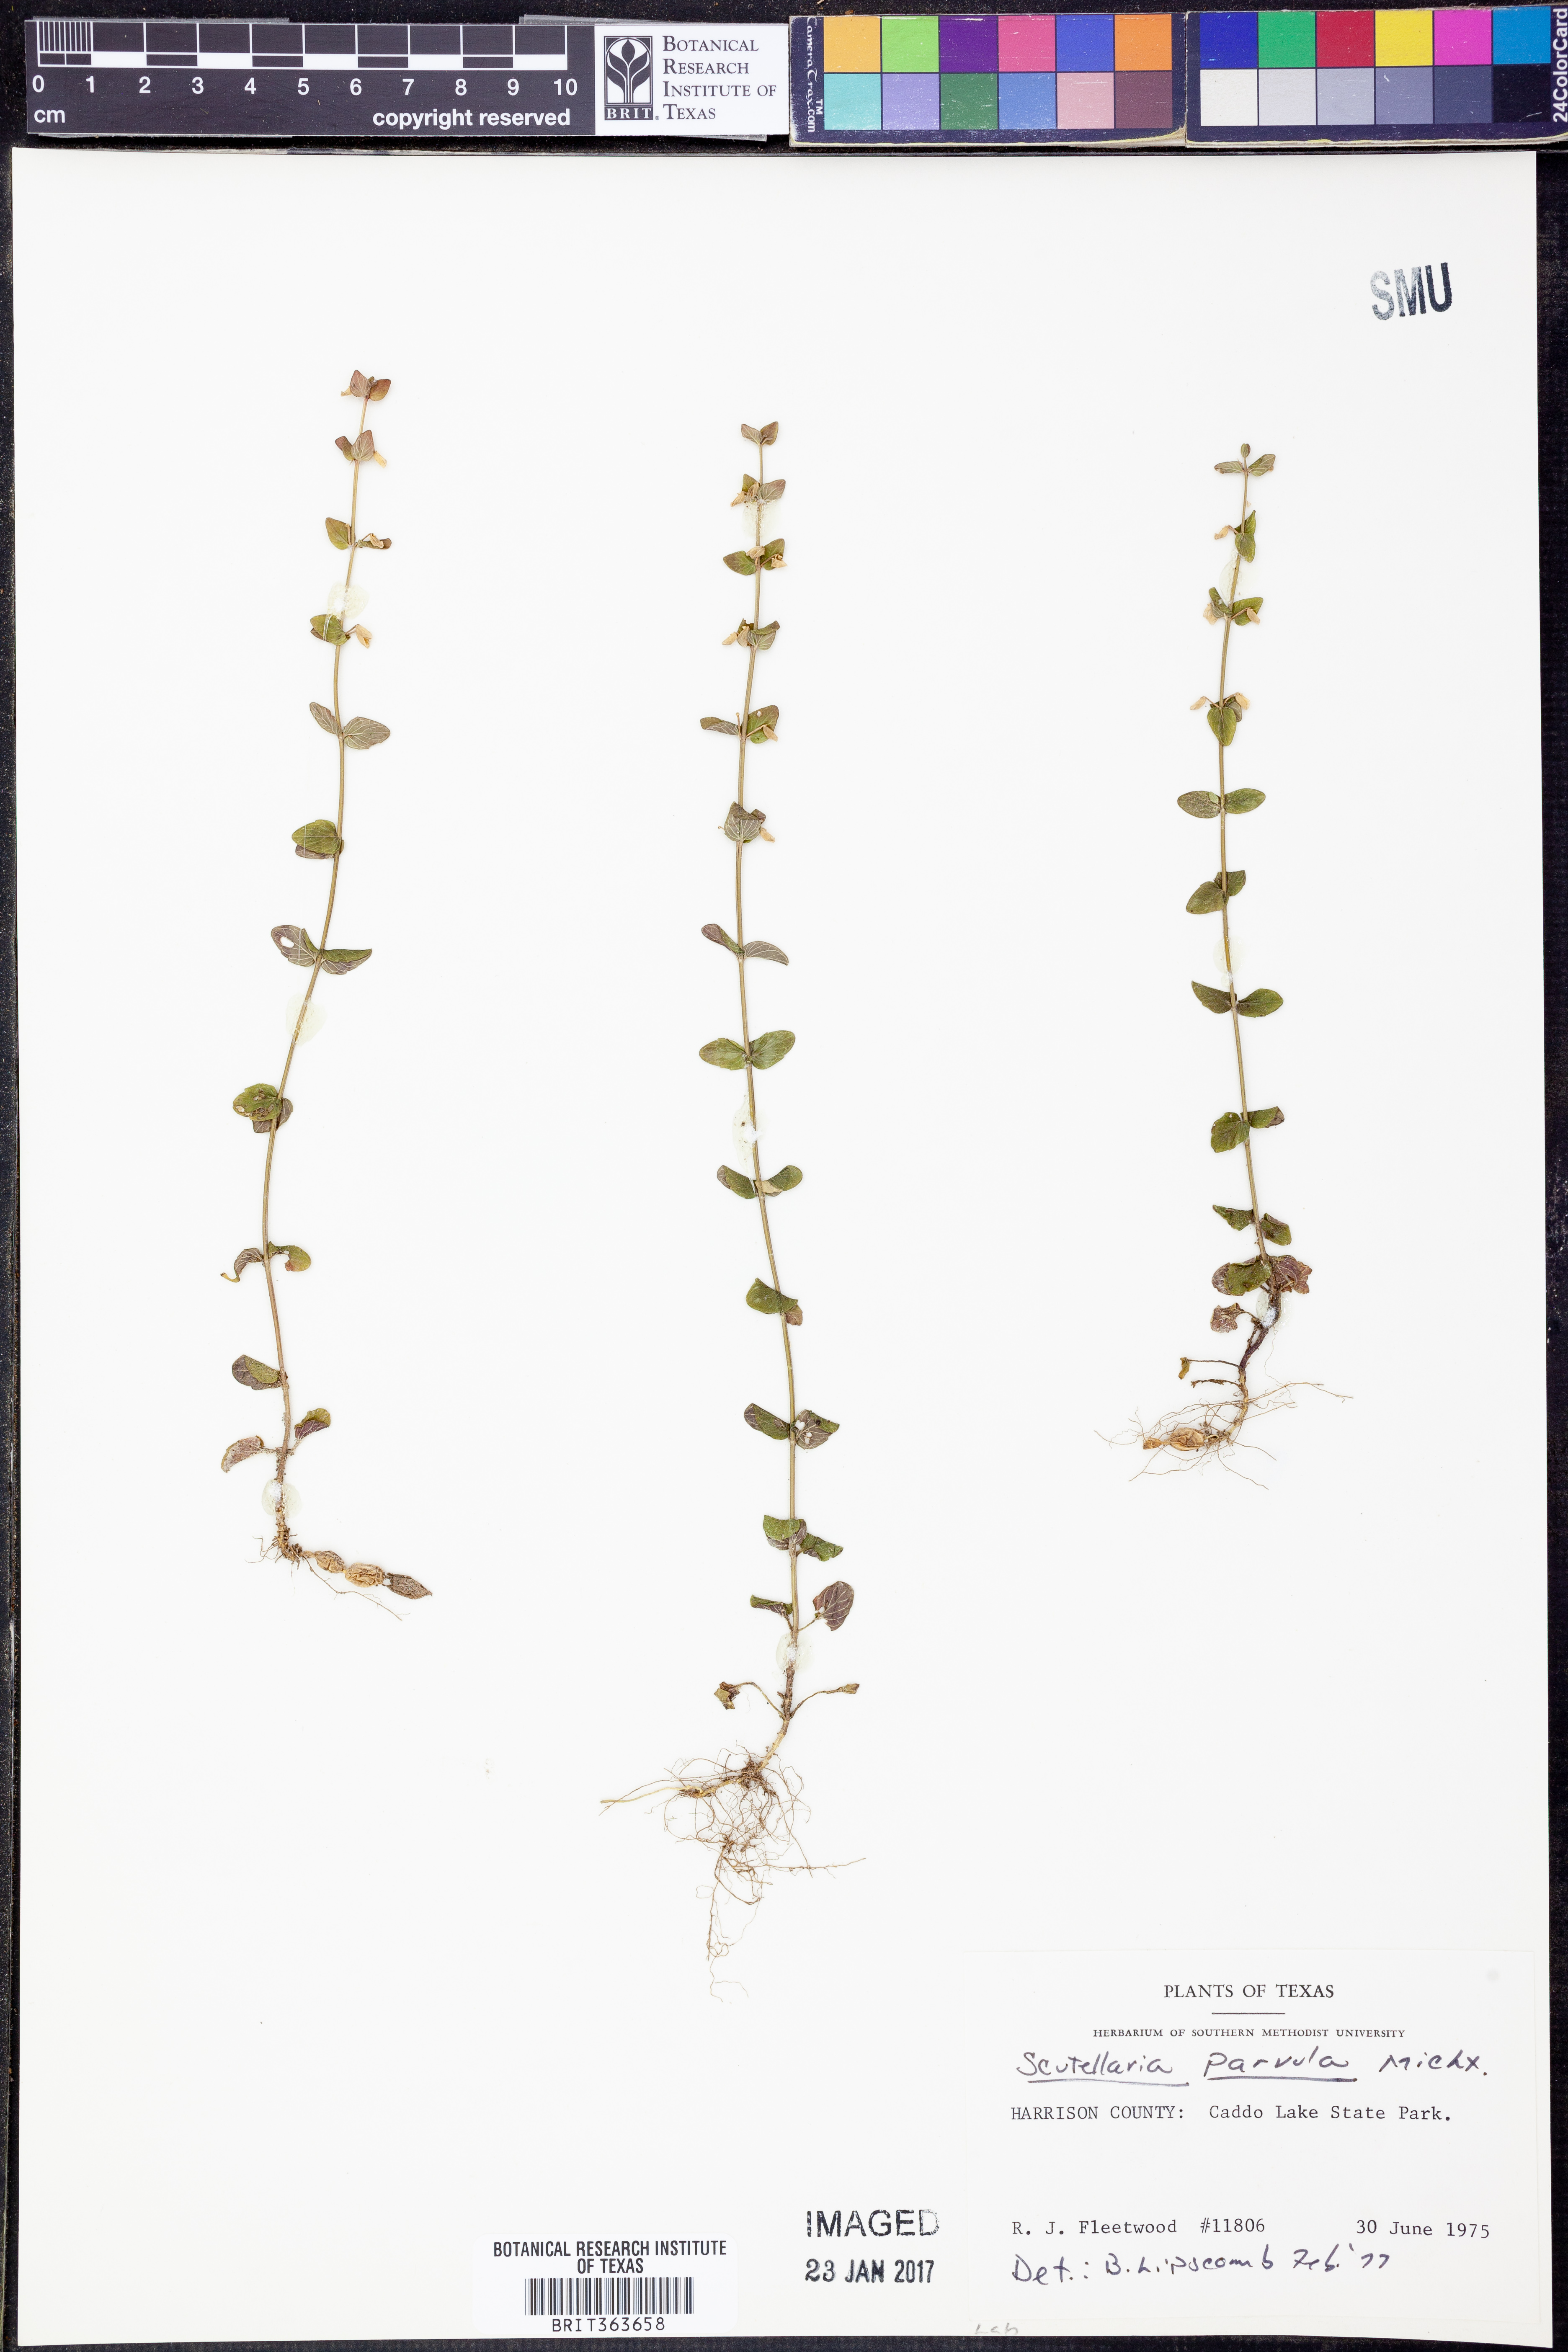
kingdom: Plantae
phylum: Tracheophyta
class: Magnoliopsida
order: Lamiales
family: Lamiaceae
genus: Scutellaria
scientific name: Scutellaria parvula
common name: Little scullcap
